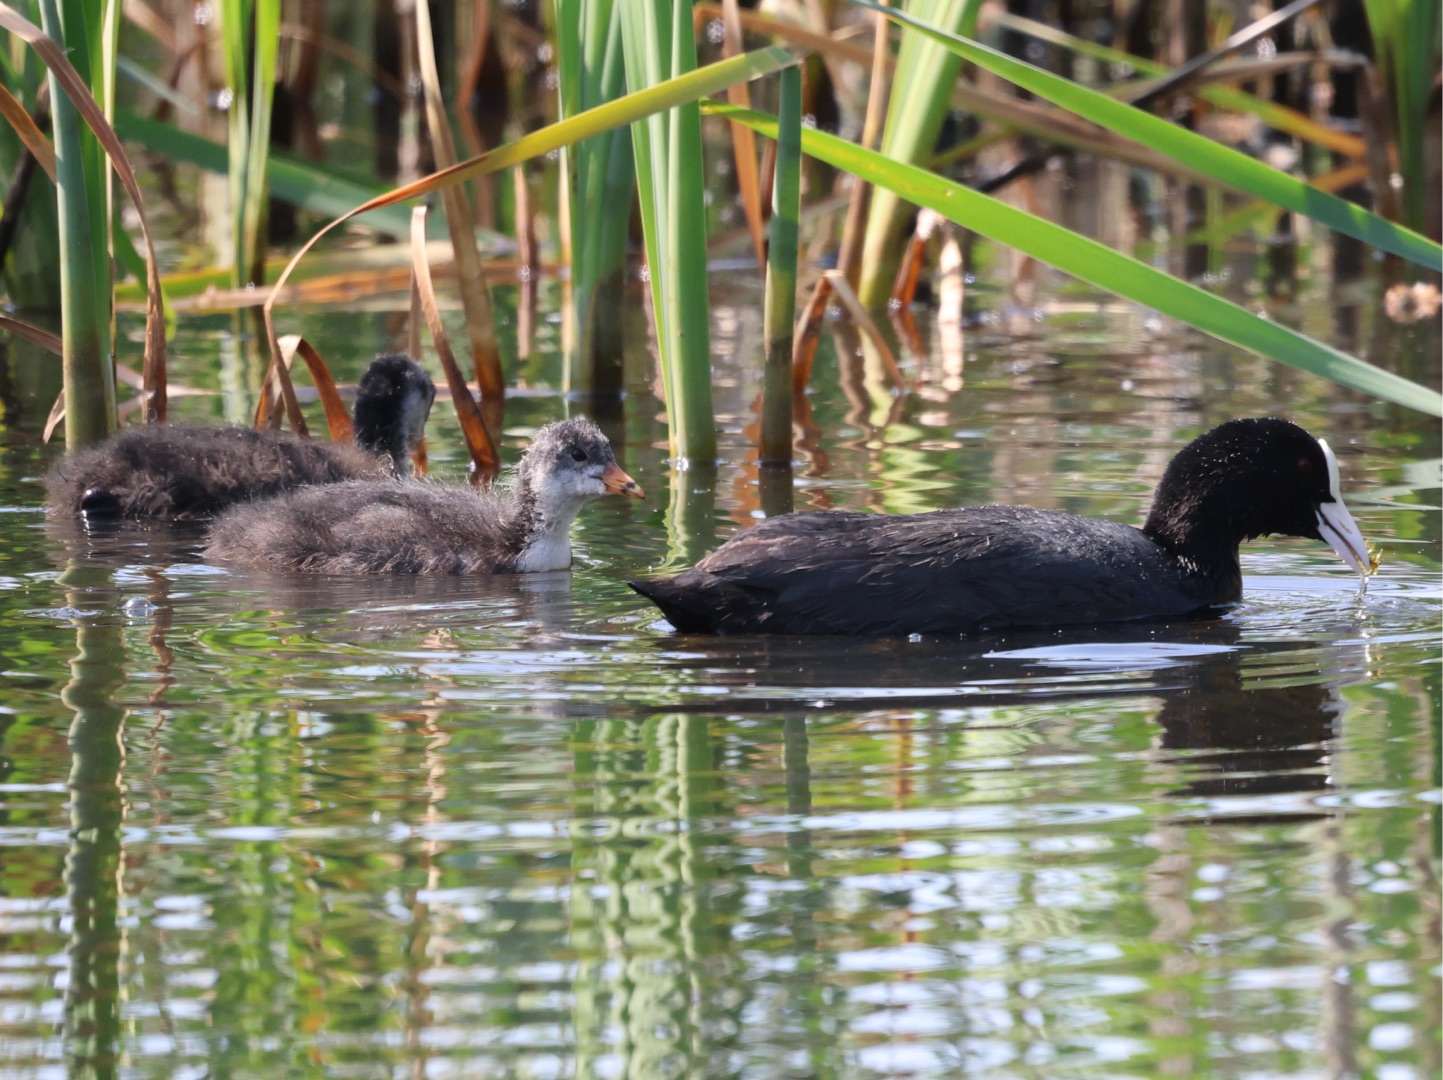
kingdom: Animalia
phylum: Chordata
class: Aves
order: Gruiformes
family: Rallidae
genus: Fulica
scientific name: Fulica atra
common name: Blishøne
